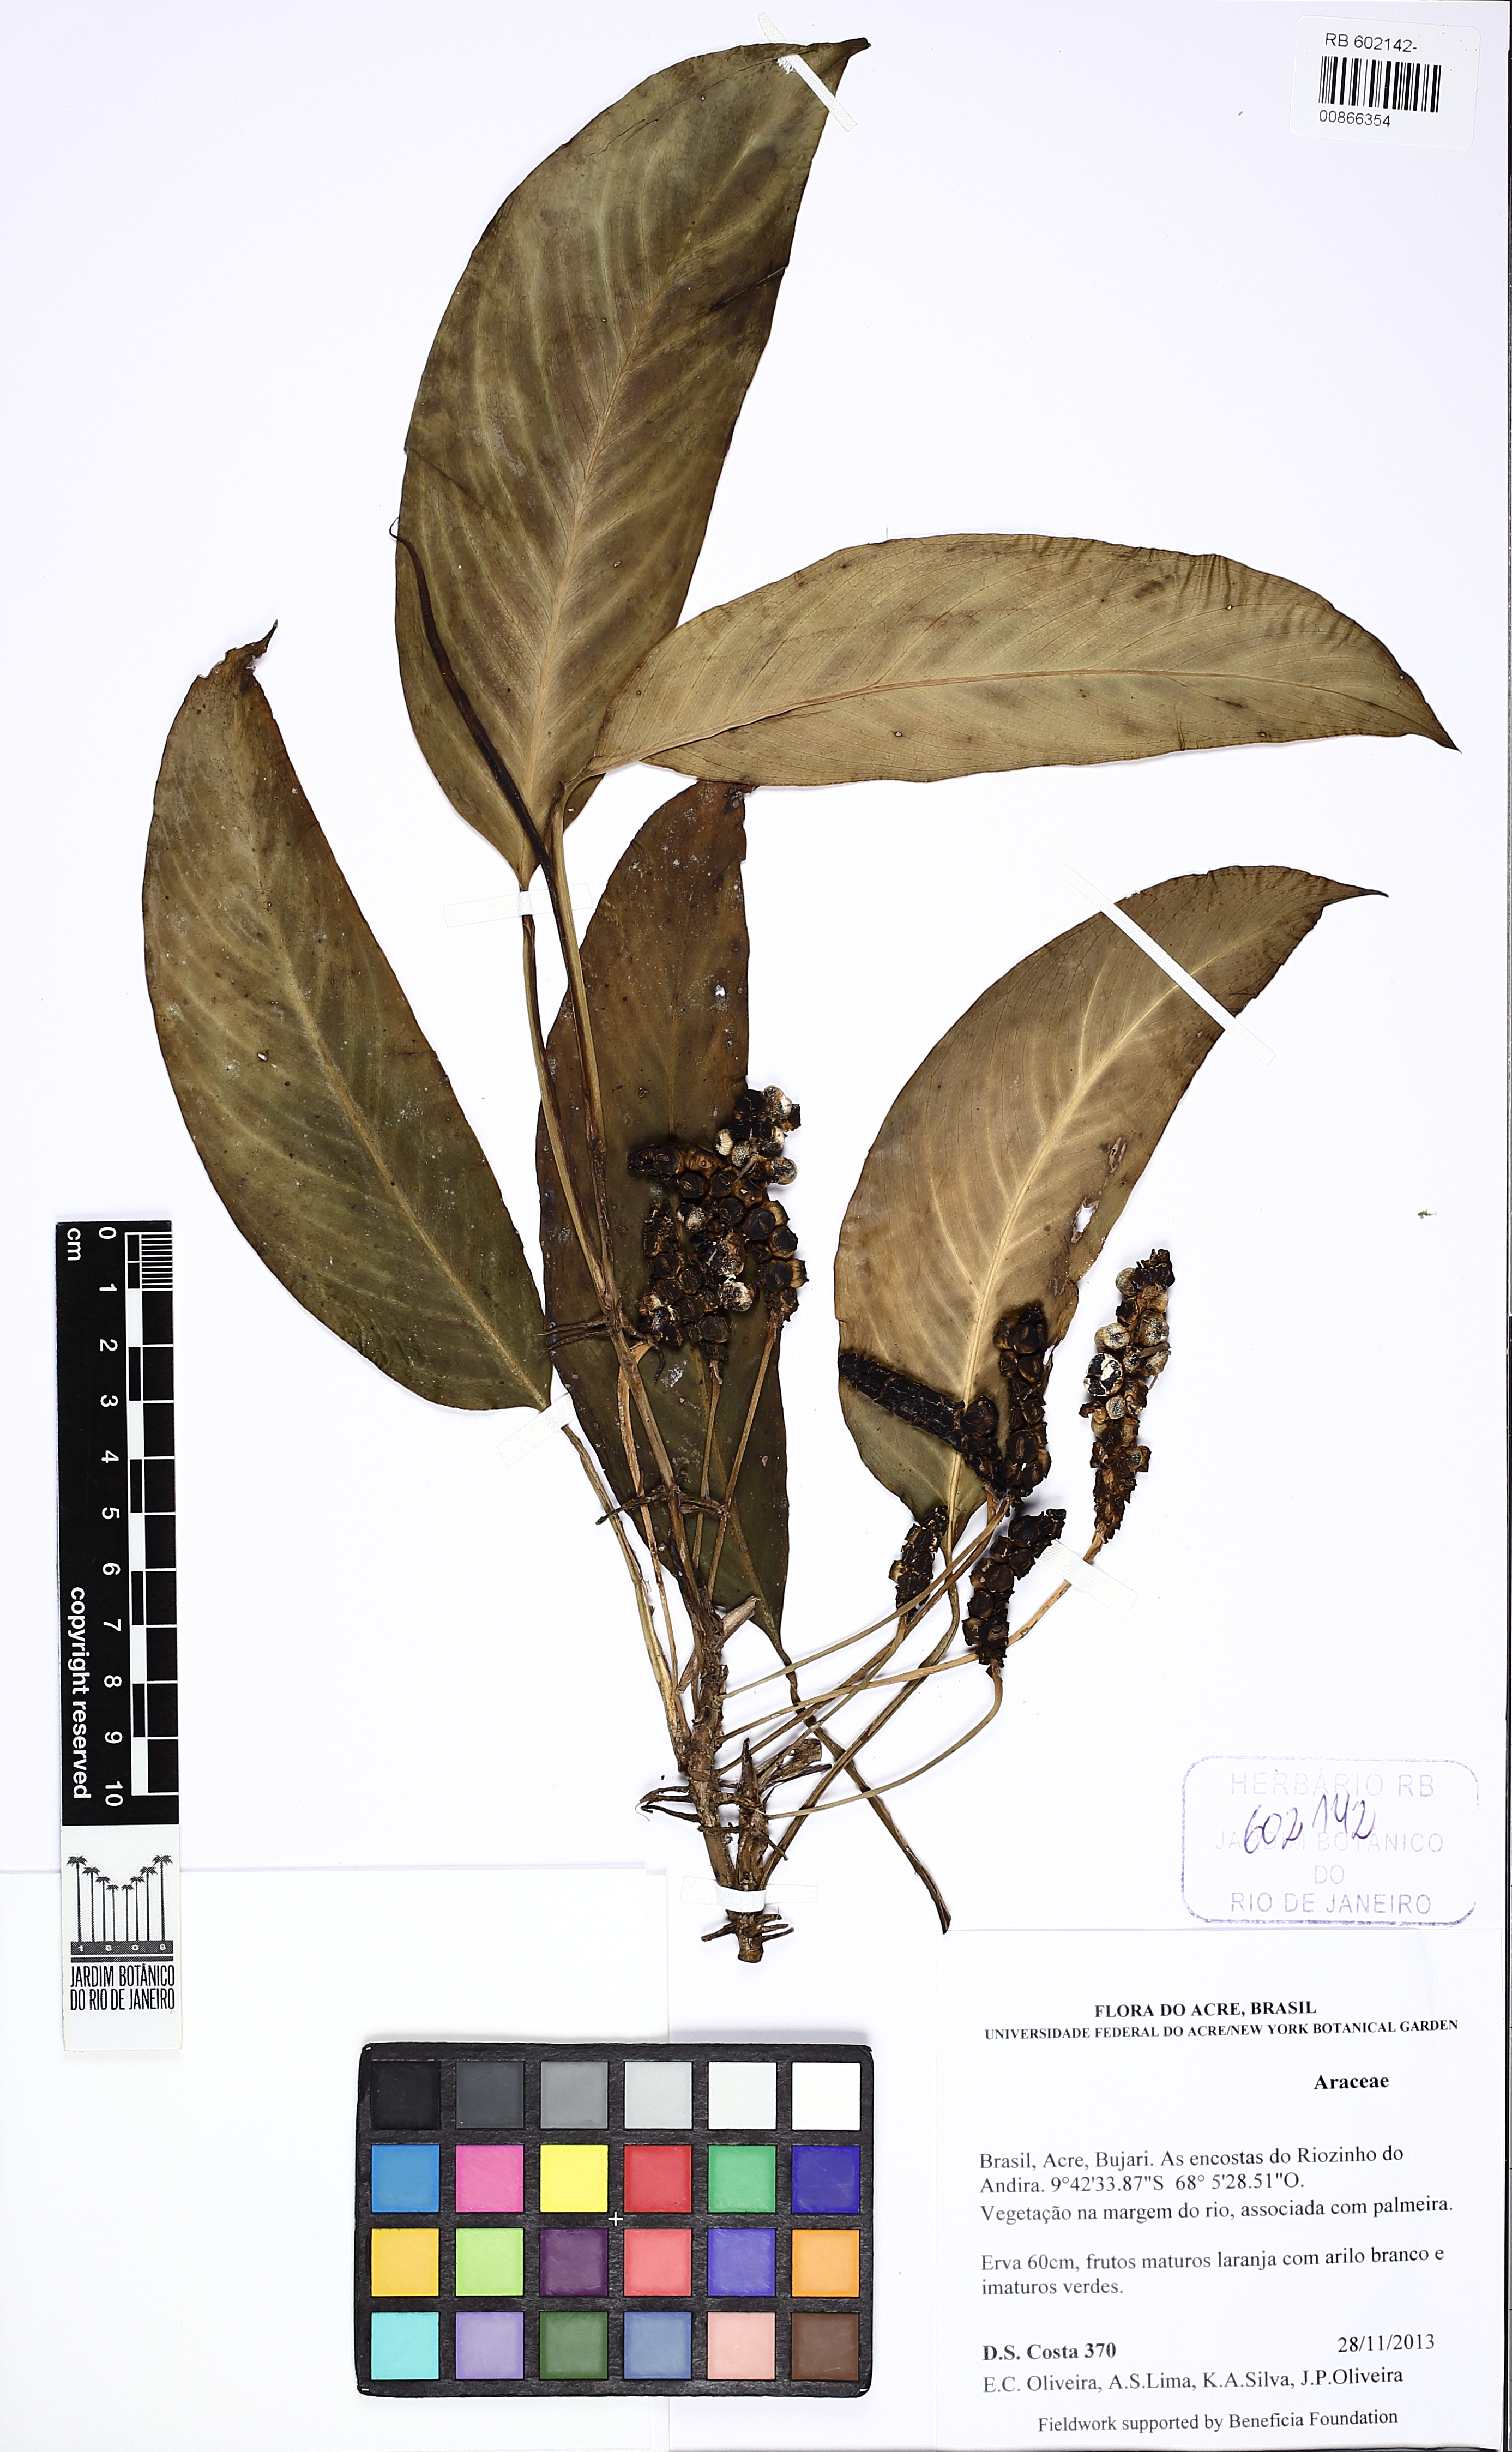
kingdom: Plantae
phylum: Tracheophyta
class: Liliopsida
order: Alismatales
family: Araceae
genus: Monstera
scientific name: Monstera obliqua
